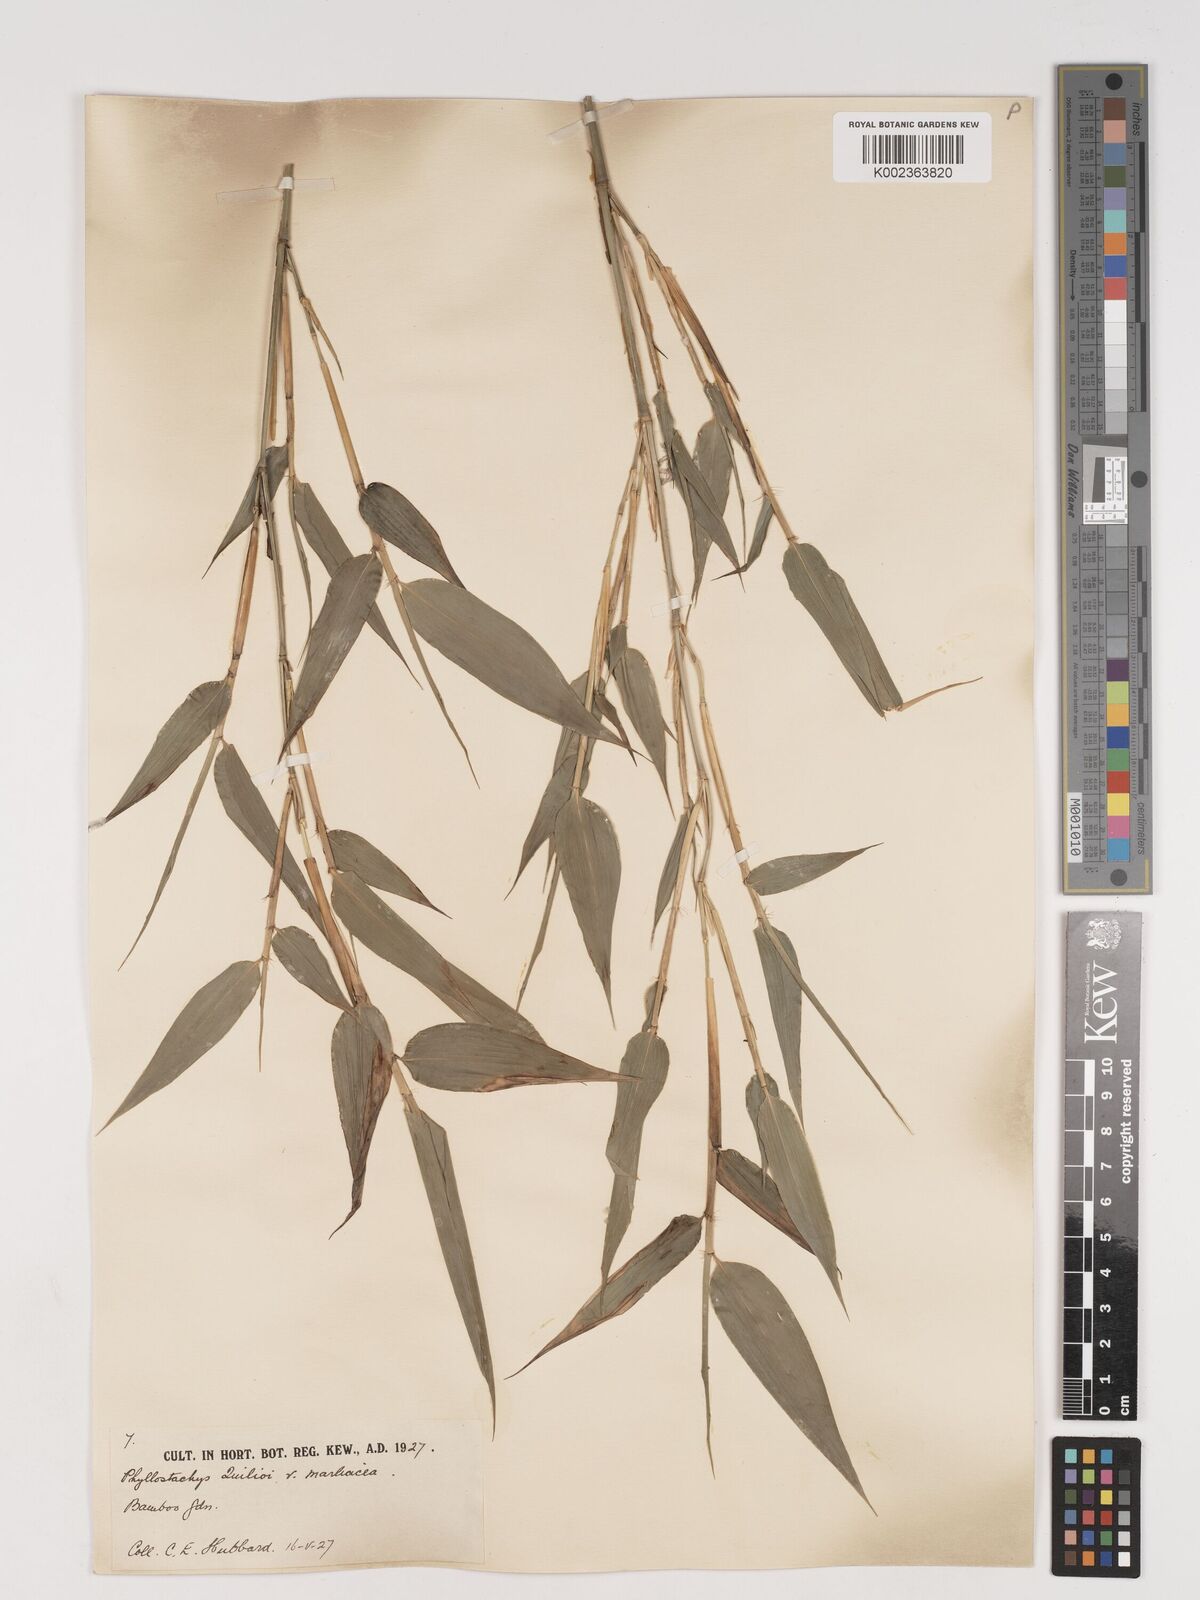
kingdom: Plantae
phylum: Tracheophyta
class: Liliopsida
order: Poales
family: Poaceae
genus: Phyllostachys
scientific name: Phyllostachys reticulata
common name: Bamboo
